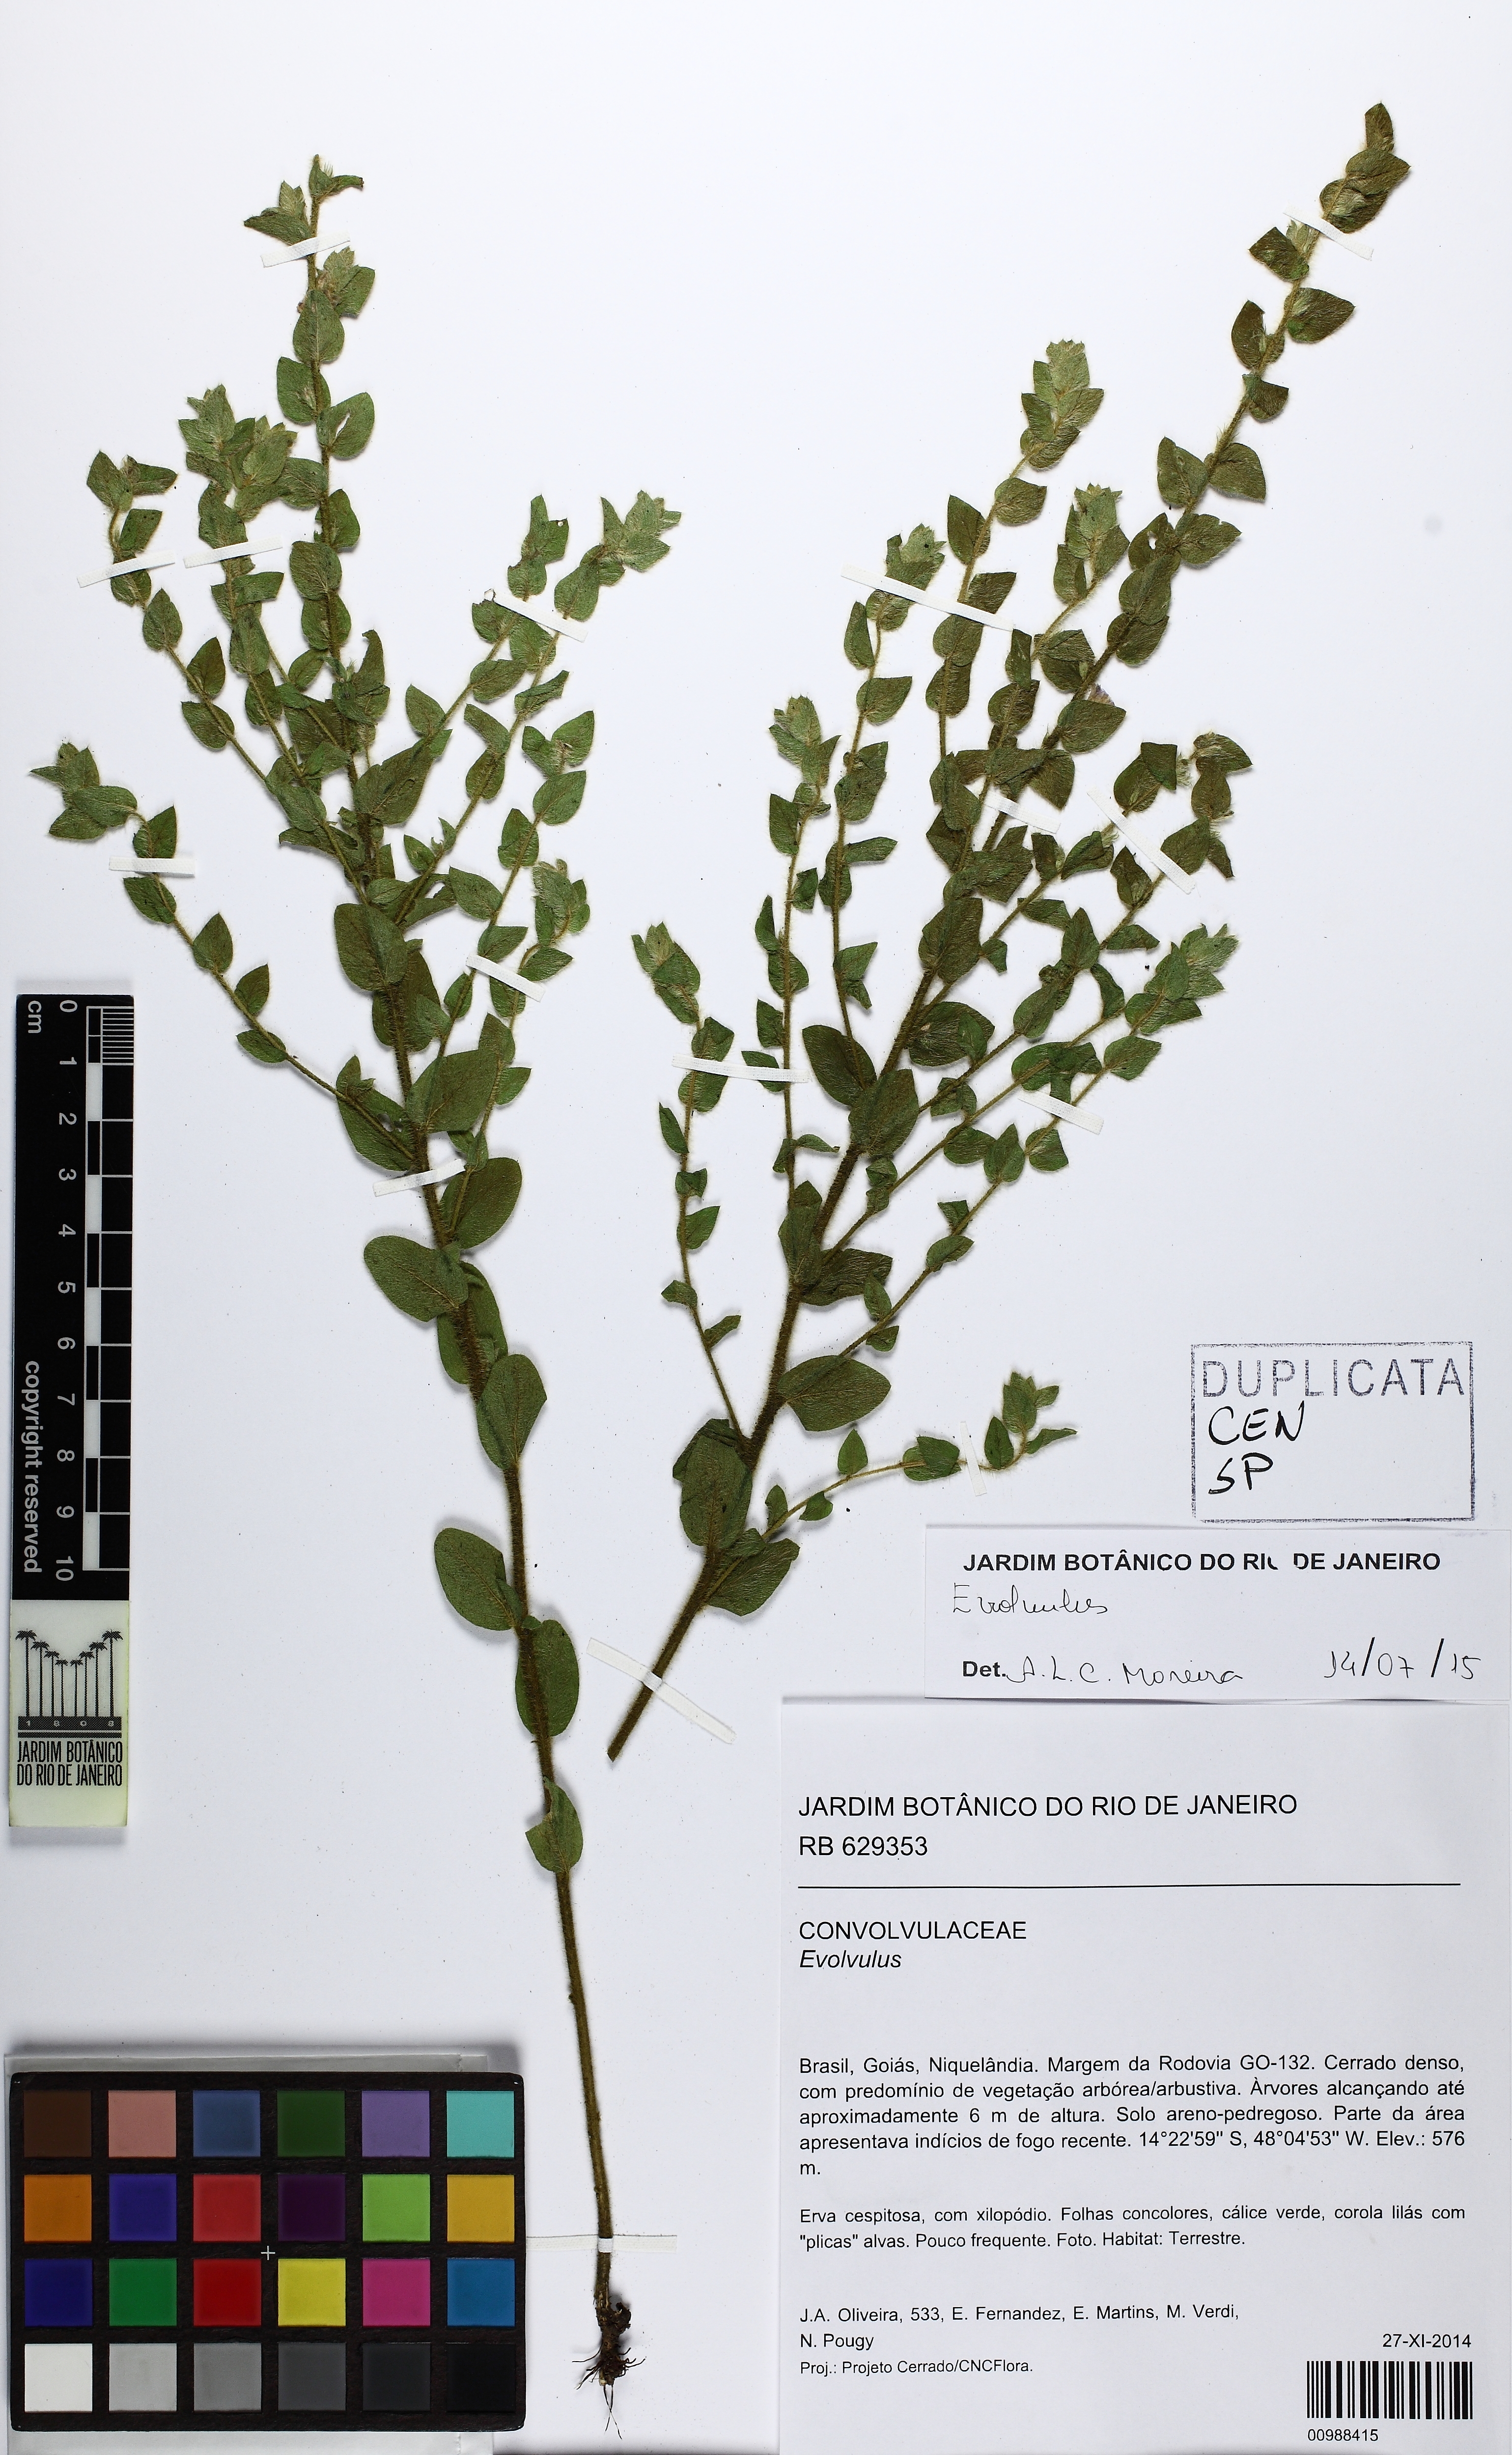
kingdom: Plantae
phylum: Tracheophyta
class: Magnoliopsida
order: Solanales
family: Convolvulaceae
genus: Evolvulus
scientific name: Evolvulus
